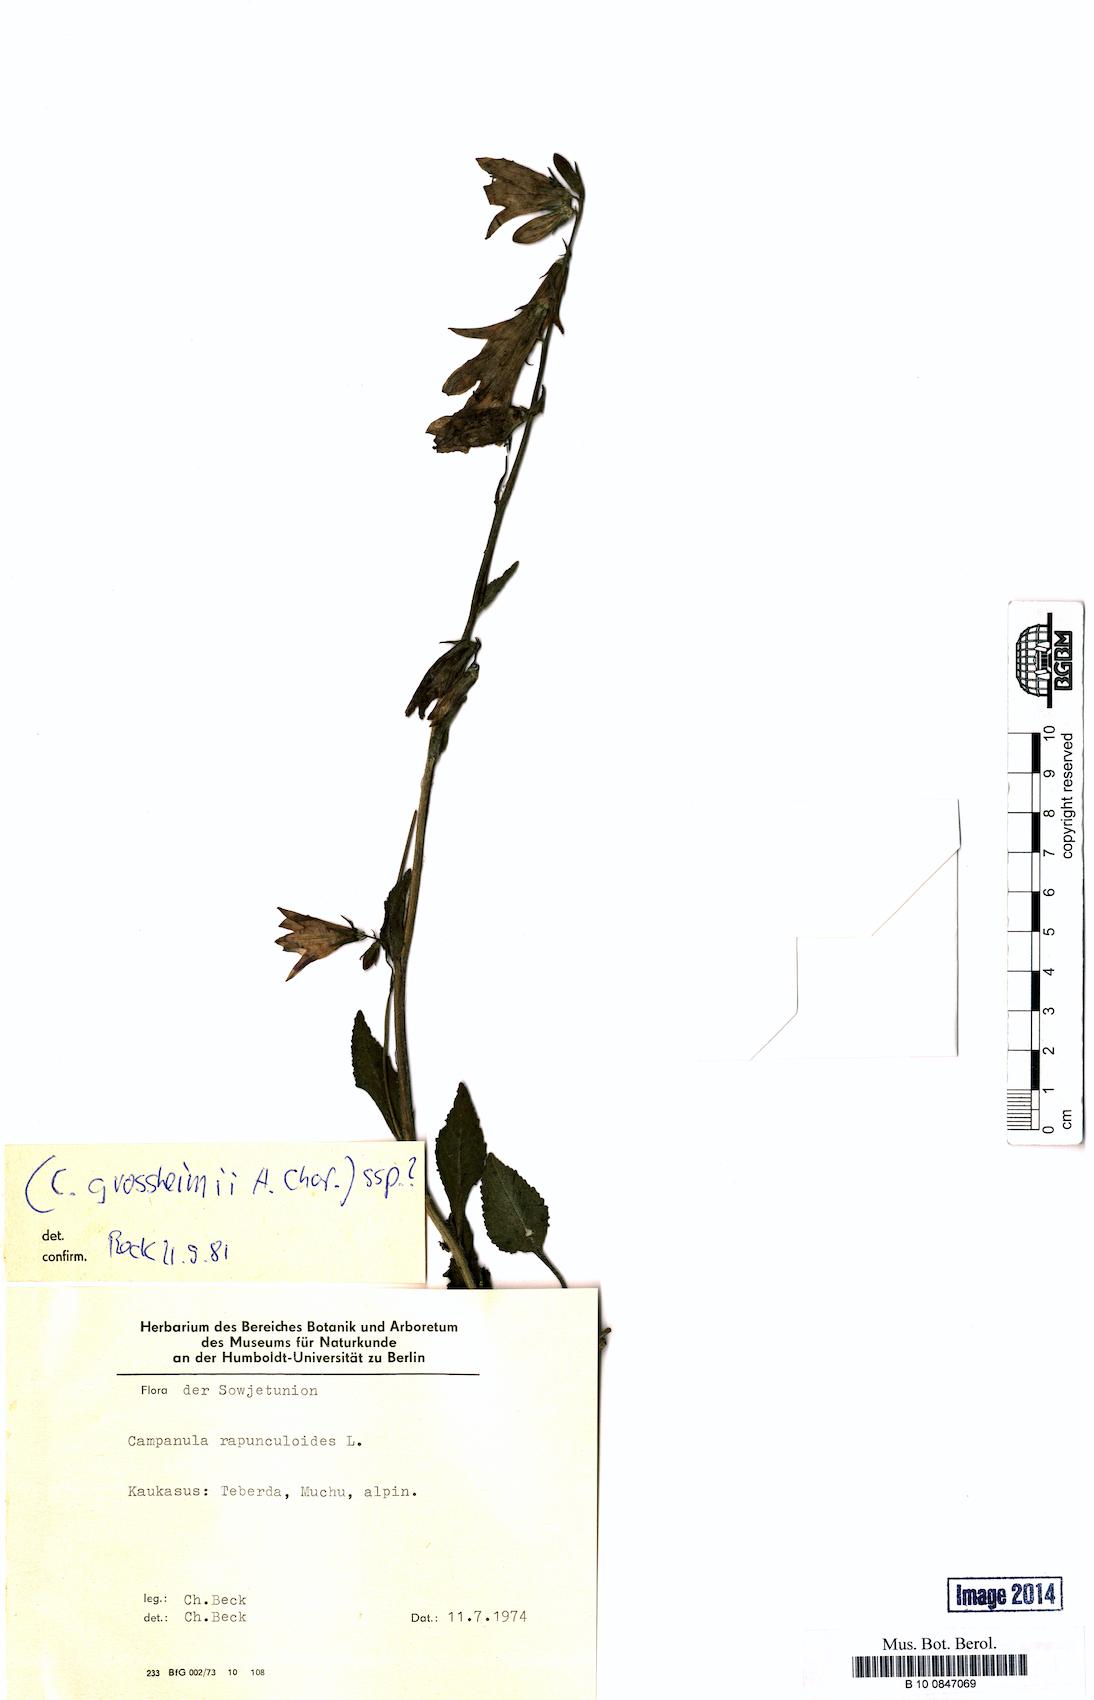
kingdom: Plantae
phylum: Tracheophyta
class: Magnoliopsida
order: Asterales
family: Campanulaceae
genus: Campanula
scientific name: Campanula rapunculoides
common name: Creeping bellflower
